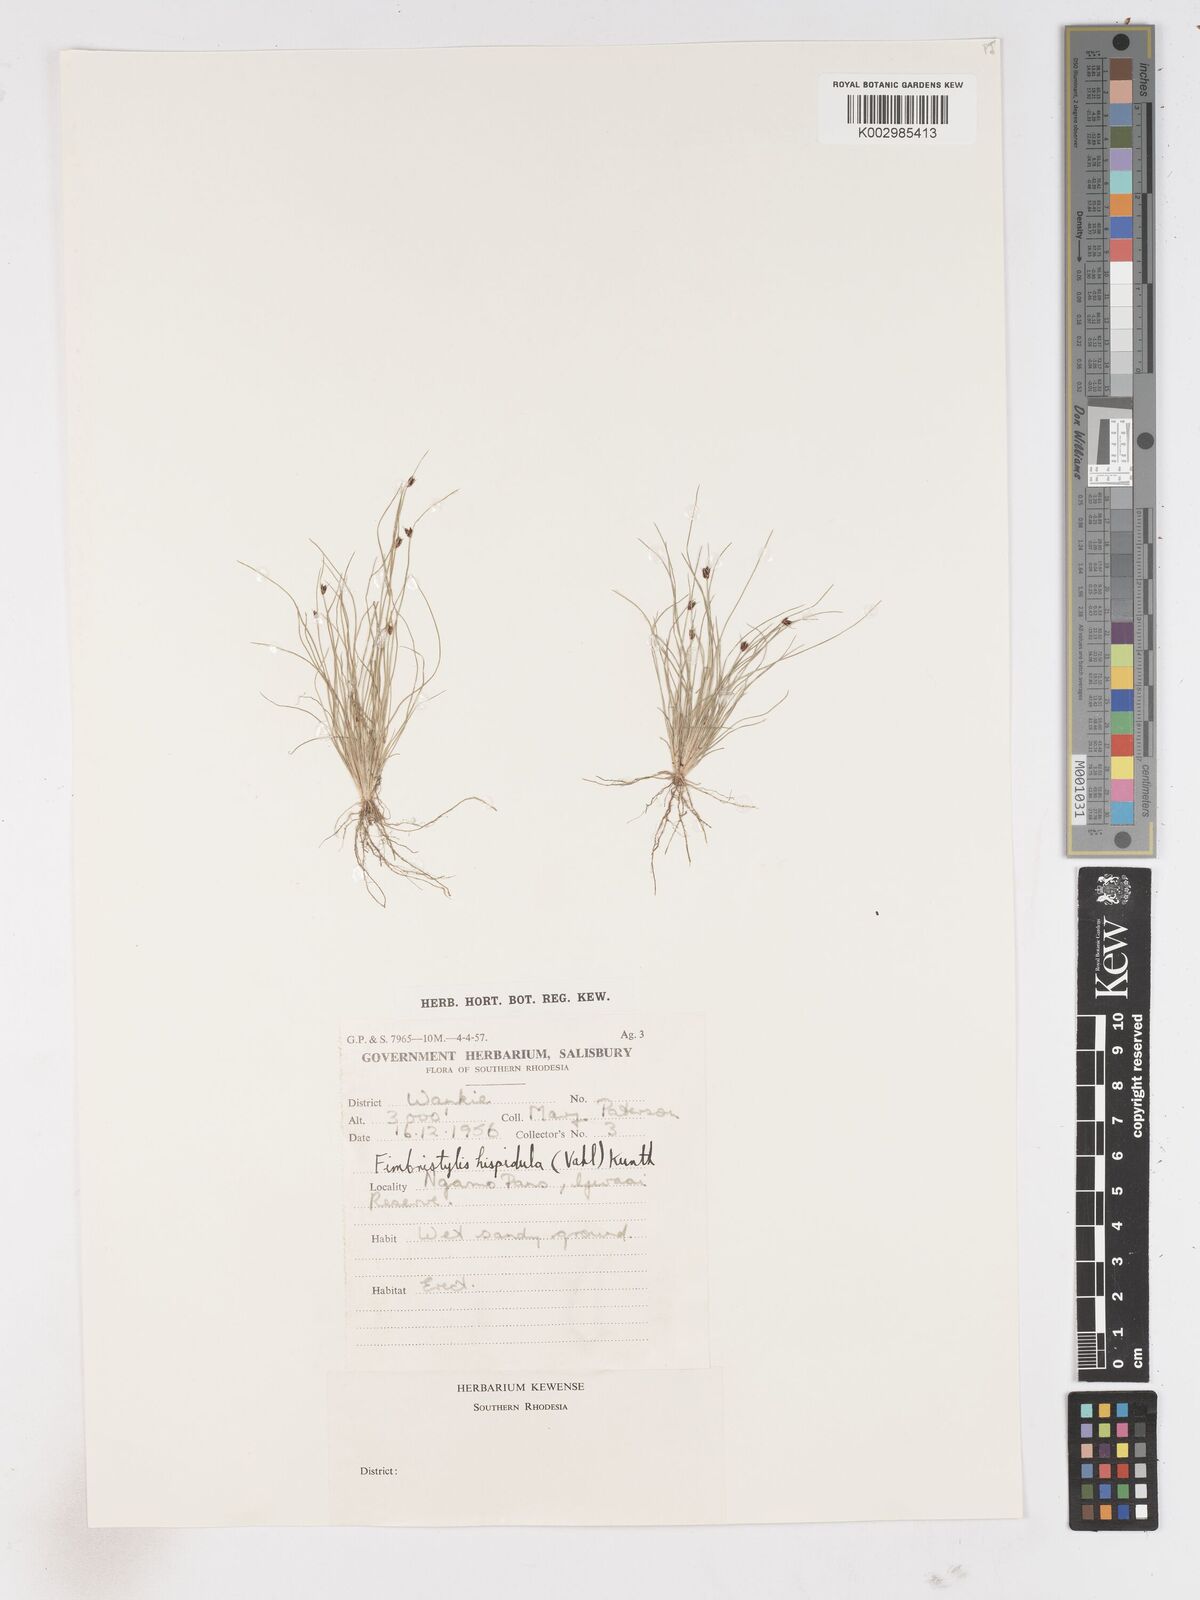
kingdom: Plantae
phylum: Tracheophyta
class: Liliopsida
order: Poales
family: Cyperaceae
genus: Fimbristylis
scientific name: Fimbristylis
